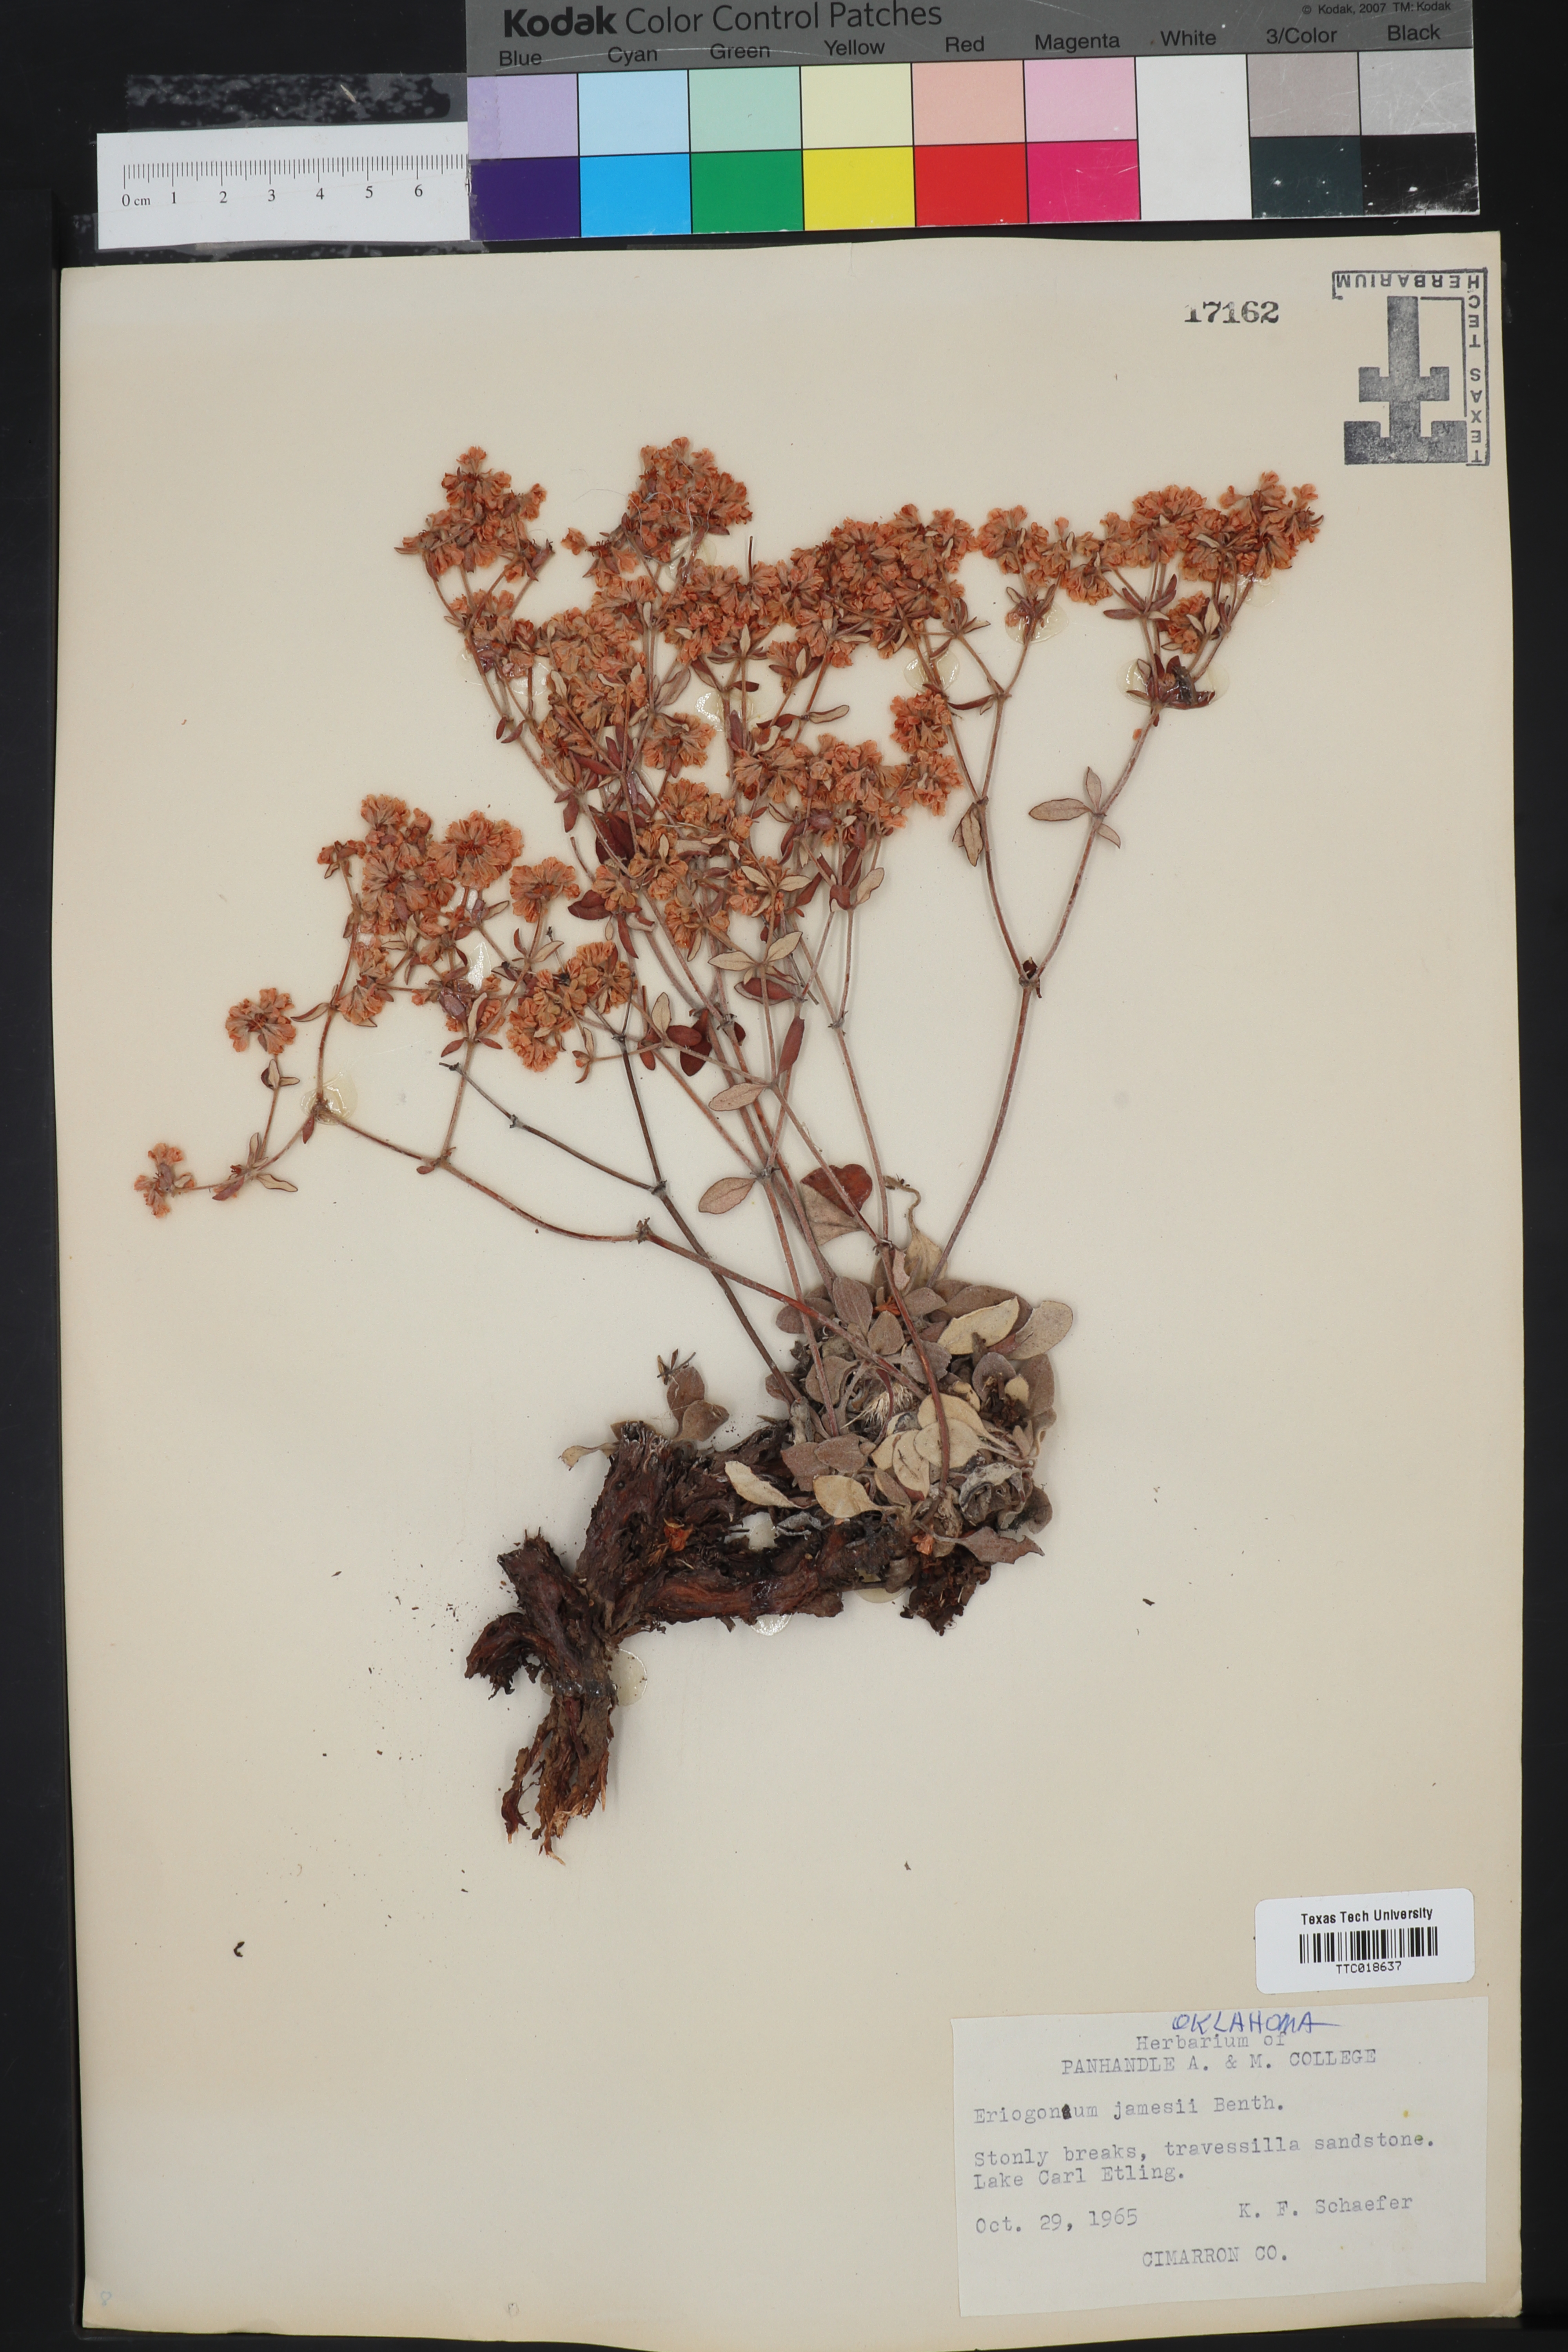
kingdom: Plantae
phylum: Tracheophyta
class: Magnoliopsida
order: Caryophyllales
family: Polygonaceae
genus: Eriogonum
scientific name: Eriogonum jamesii
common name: Antelope-sage
